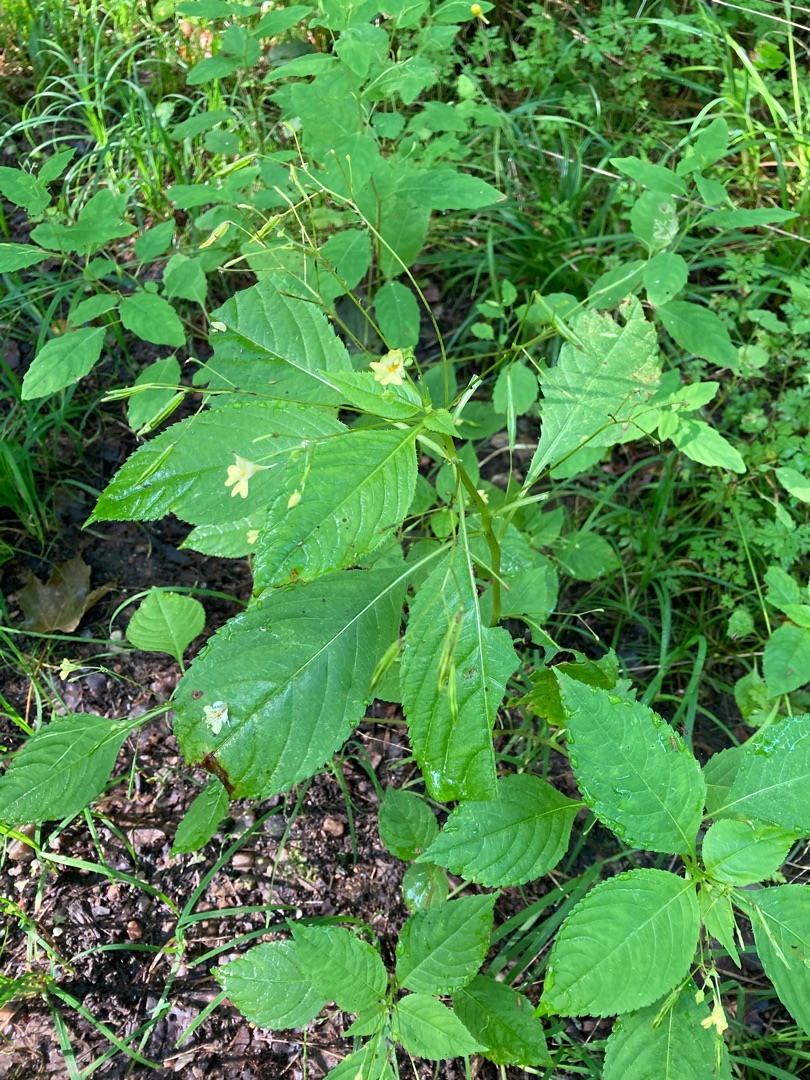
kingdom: Plantae
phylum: Tracheophyta
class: Magnoliopsida
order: Ericales
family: Balsaminaceae
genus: Impatiens
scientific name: Impatiens parviflora
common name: Småblomstret balsamin
